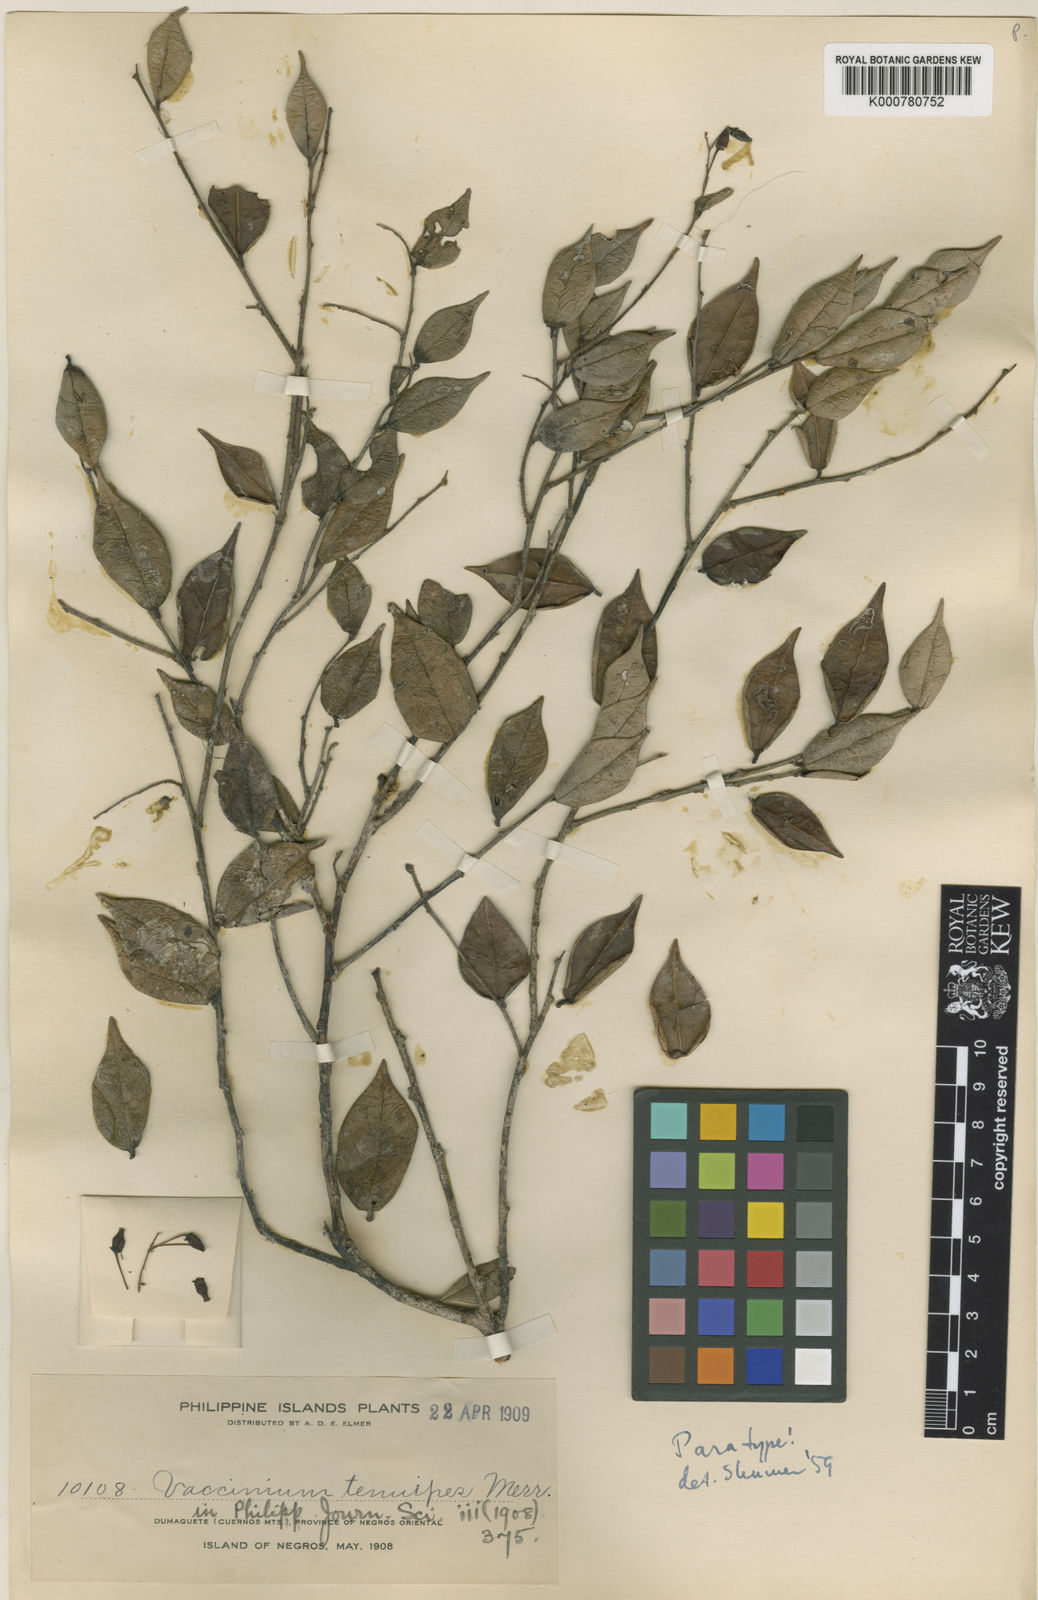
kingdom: Plantae
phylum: Tracheophyta
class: Magnoliopsida
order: Ericales
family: Ericaceae
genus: Vaccinium
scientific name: Vaccinium tenuipes
